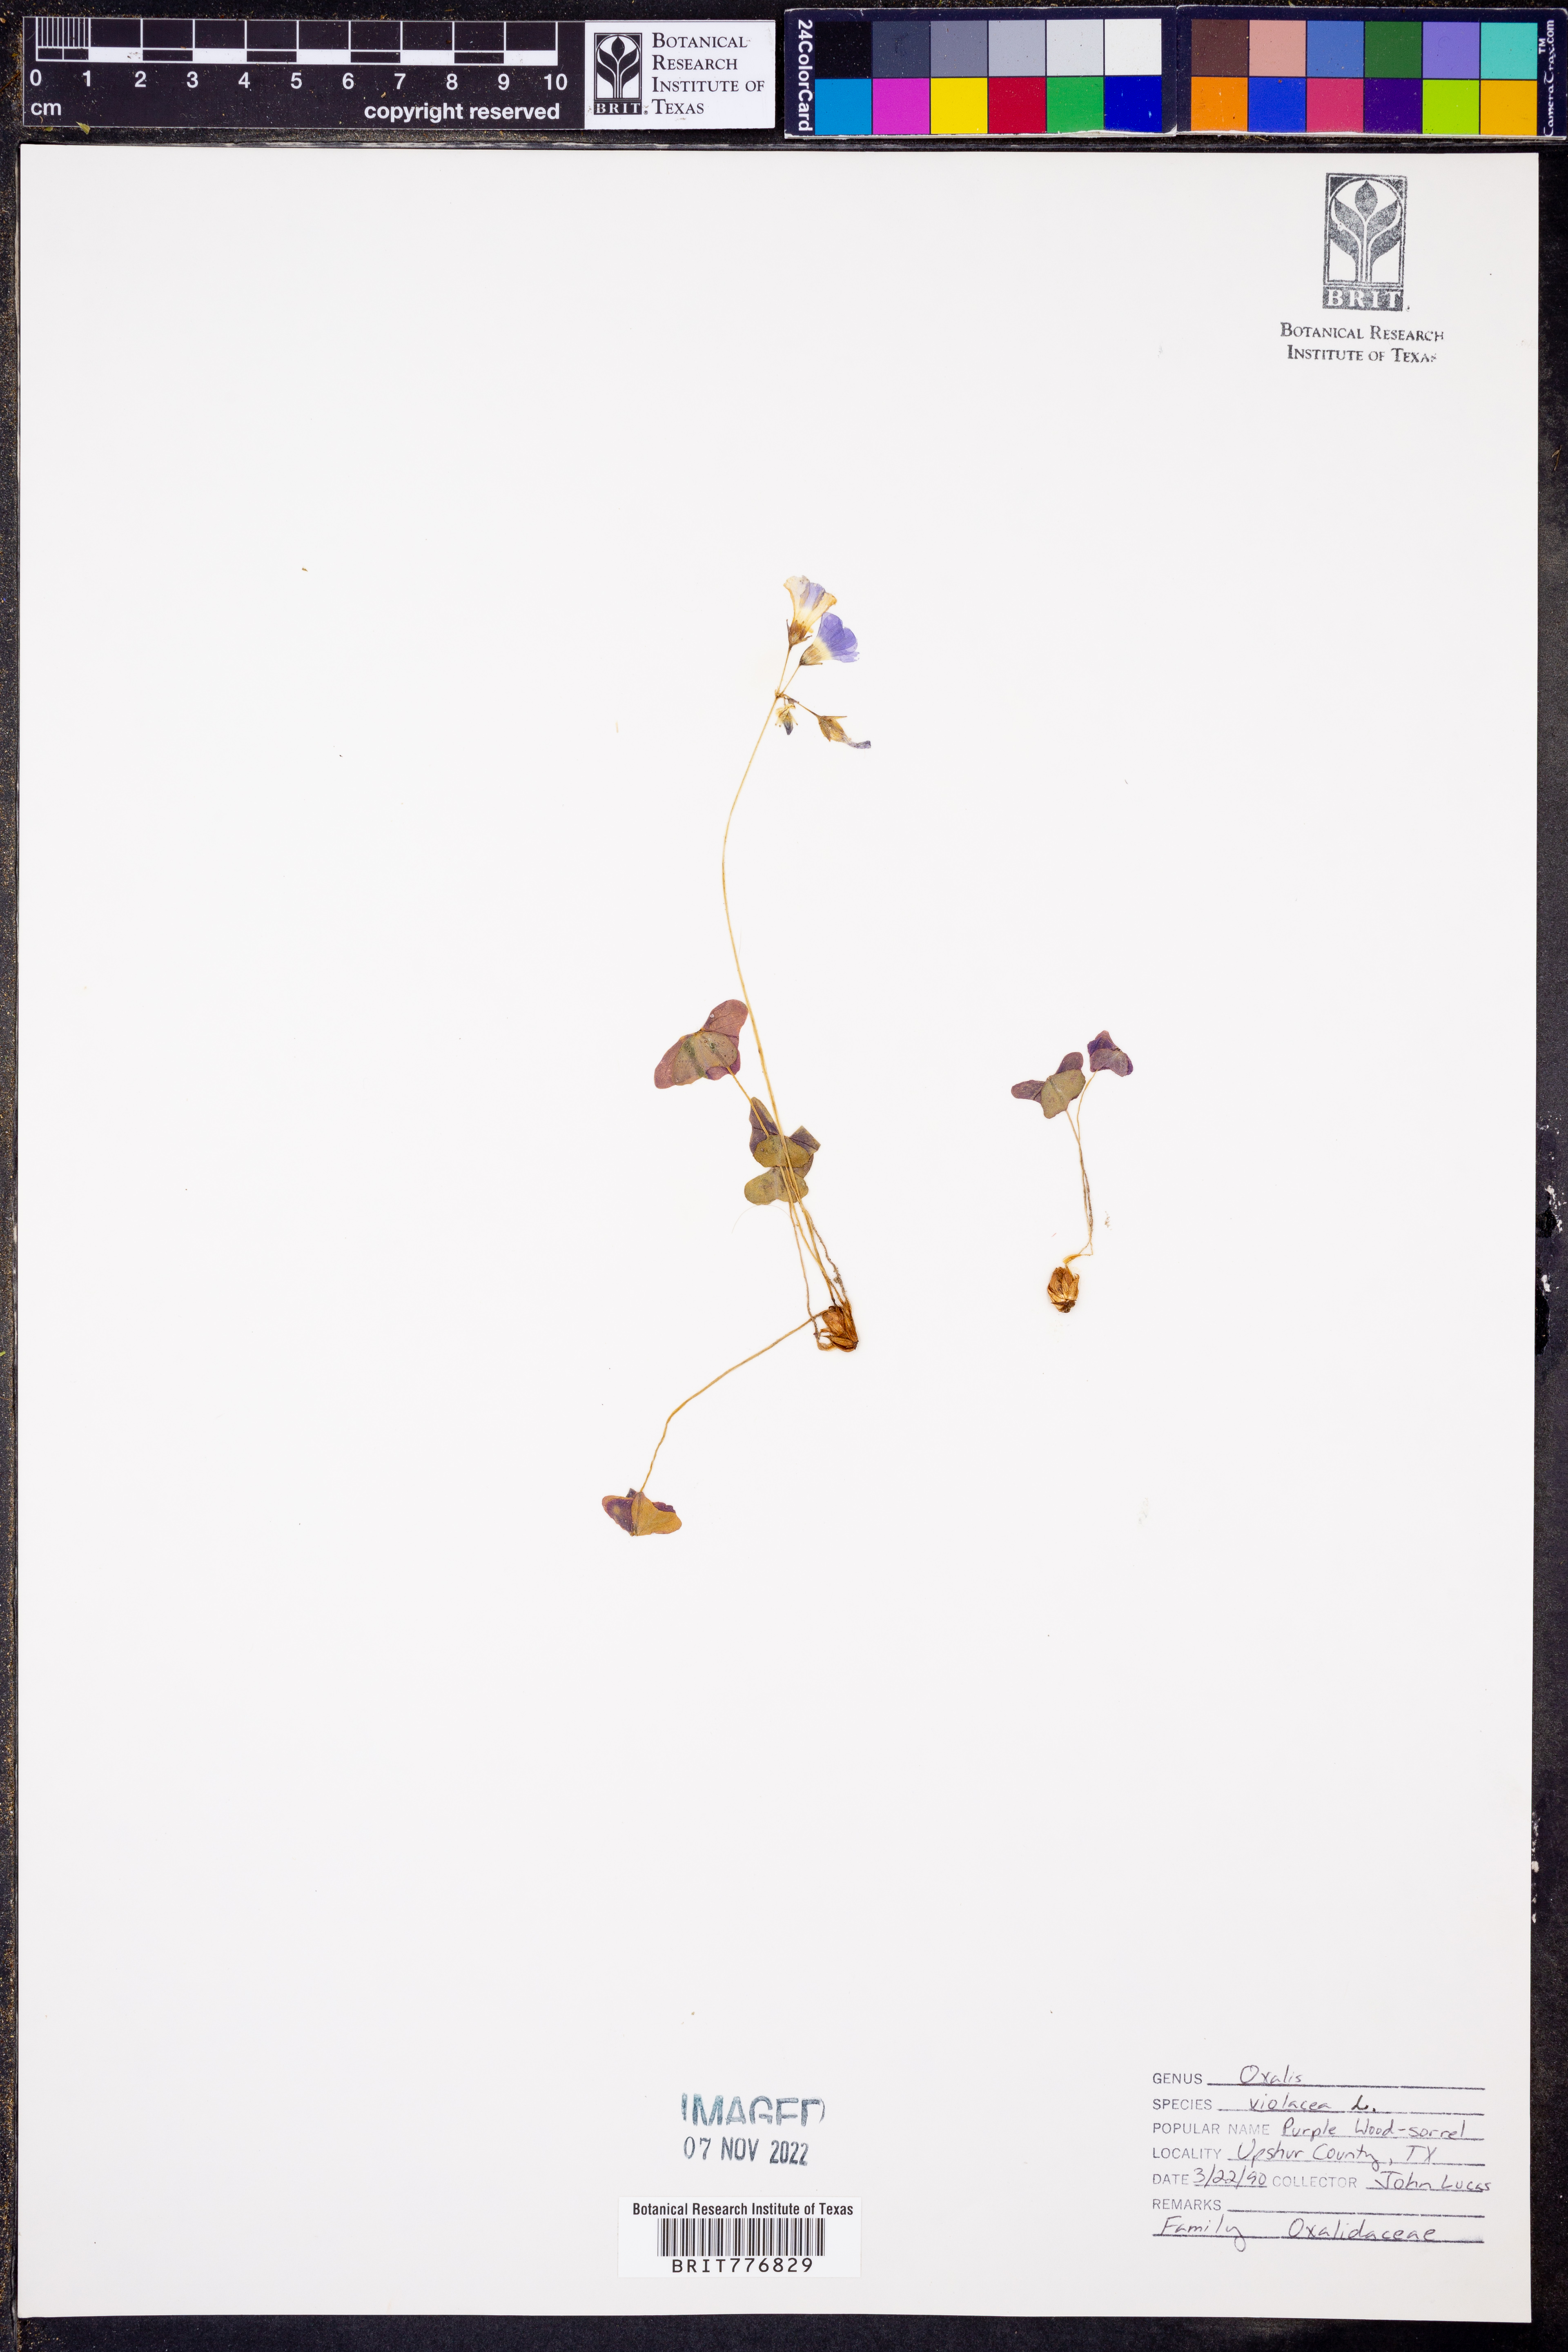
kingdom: Plantae
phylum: Tracheophyta
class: Magnoliopsida
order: Oxalidales
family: Oxalidaceae
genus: Oxalis
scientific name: Oxalis violacea
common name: Violet wood-sorrel
